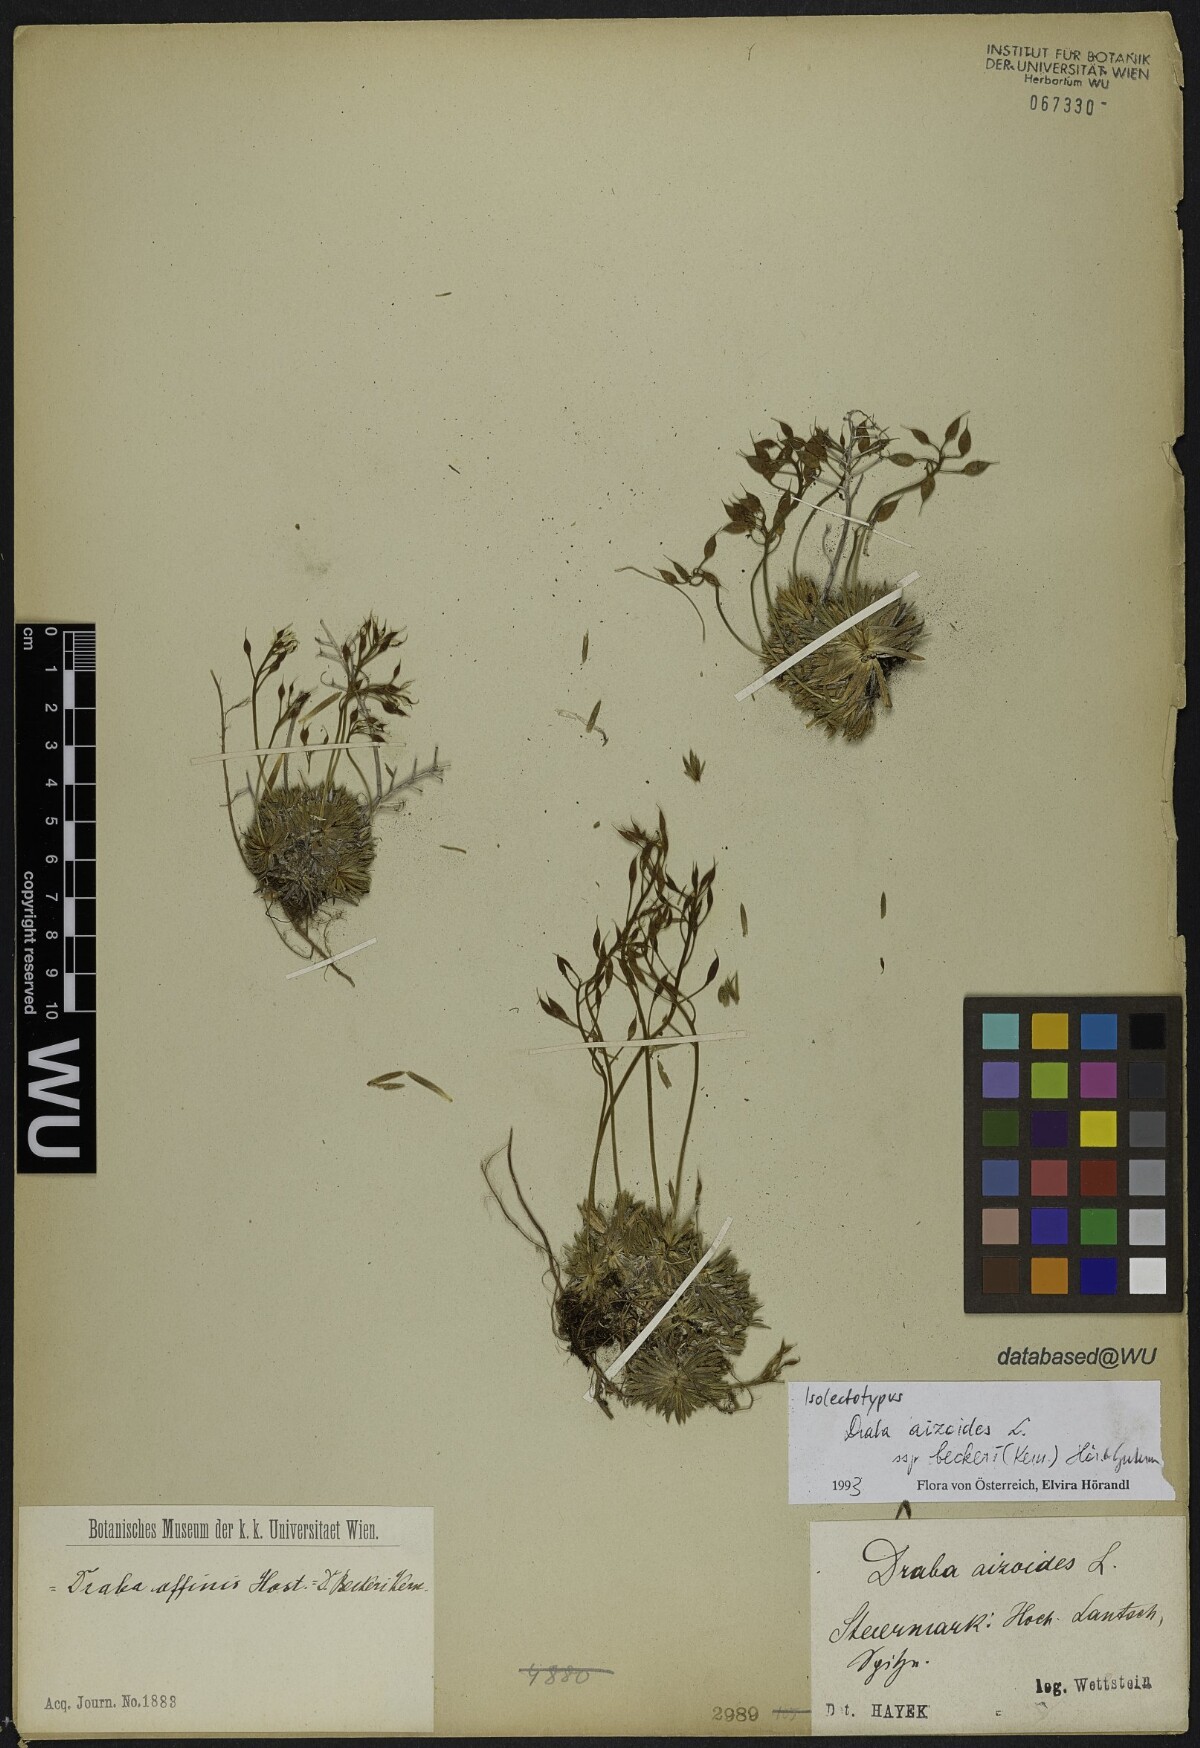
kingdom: Plantae
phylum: Tracheophyta
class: Magnoliopsida
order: Brassicales
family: Brassicaceae
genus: Draba
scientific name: Draba aizoides
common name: Yellow whitlowgrass
